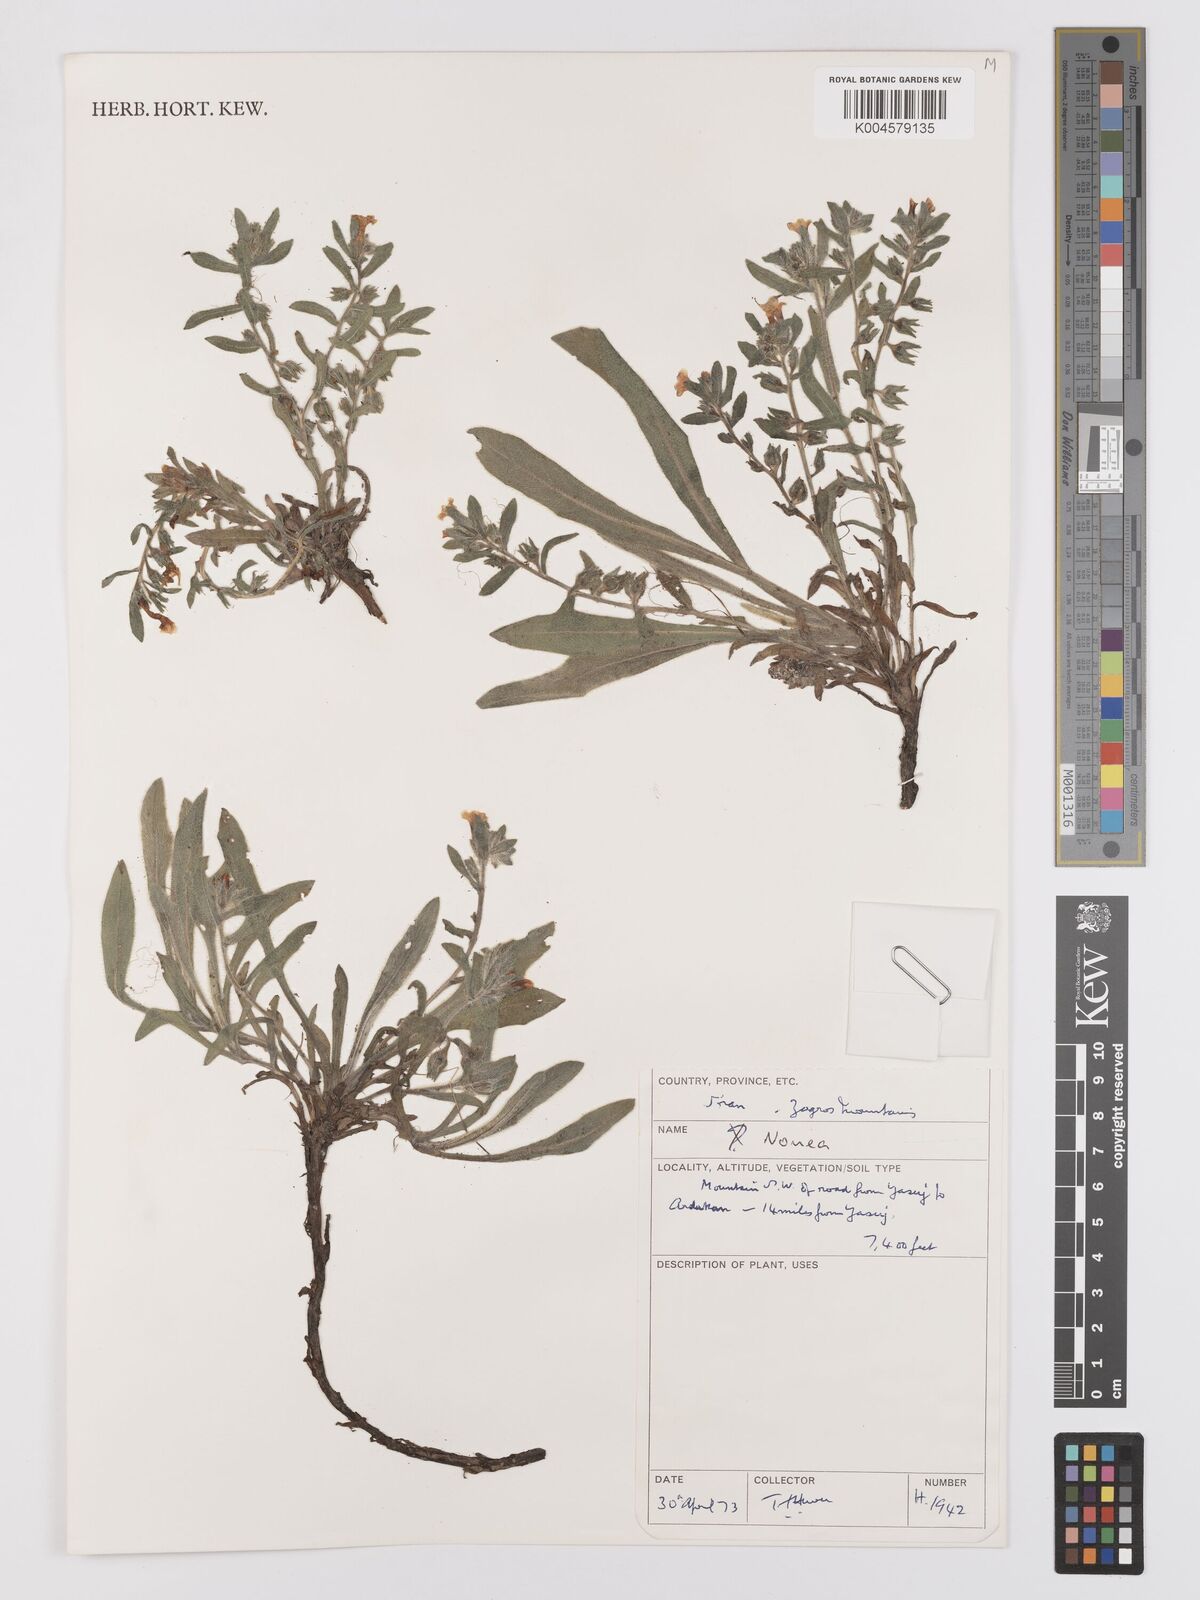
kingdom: Plantae
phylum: Tracheophyta
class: Magnoliopsida
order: Boraginales
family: Boraginaceae
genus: Nonea
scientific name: Nonea
